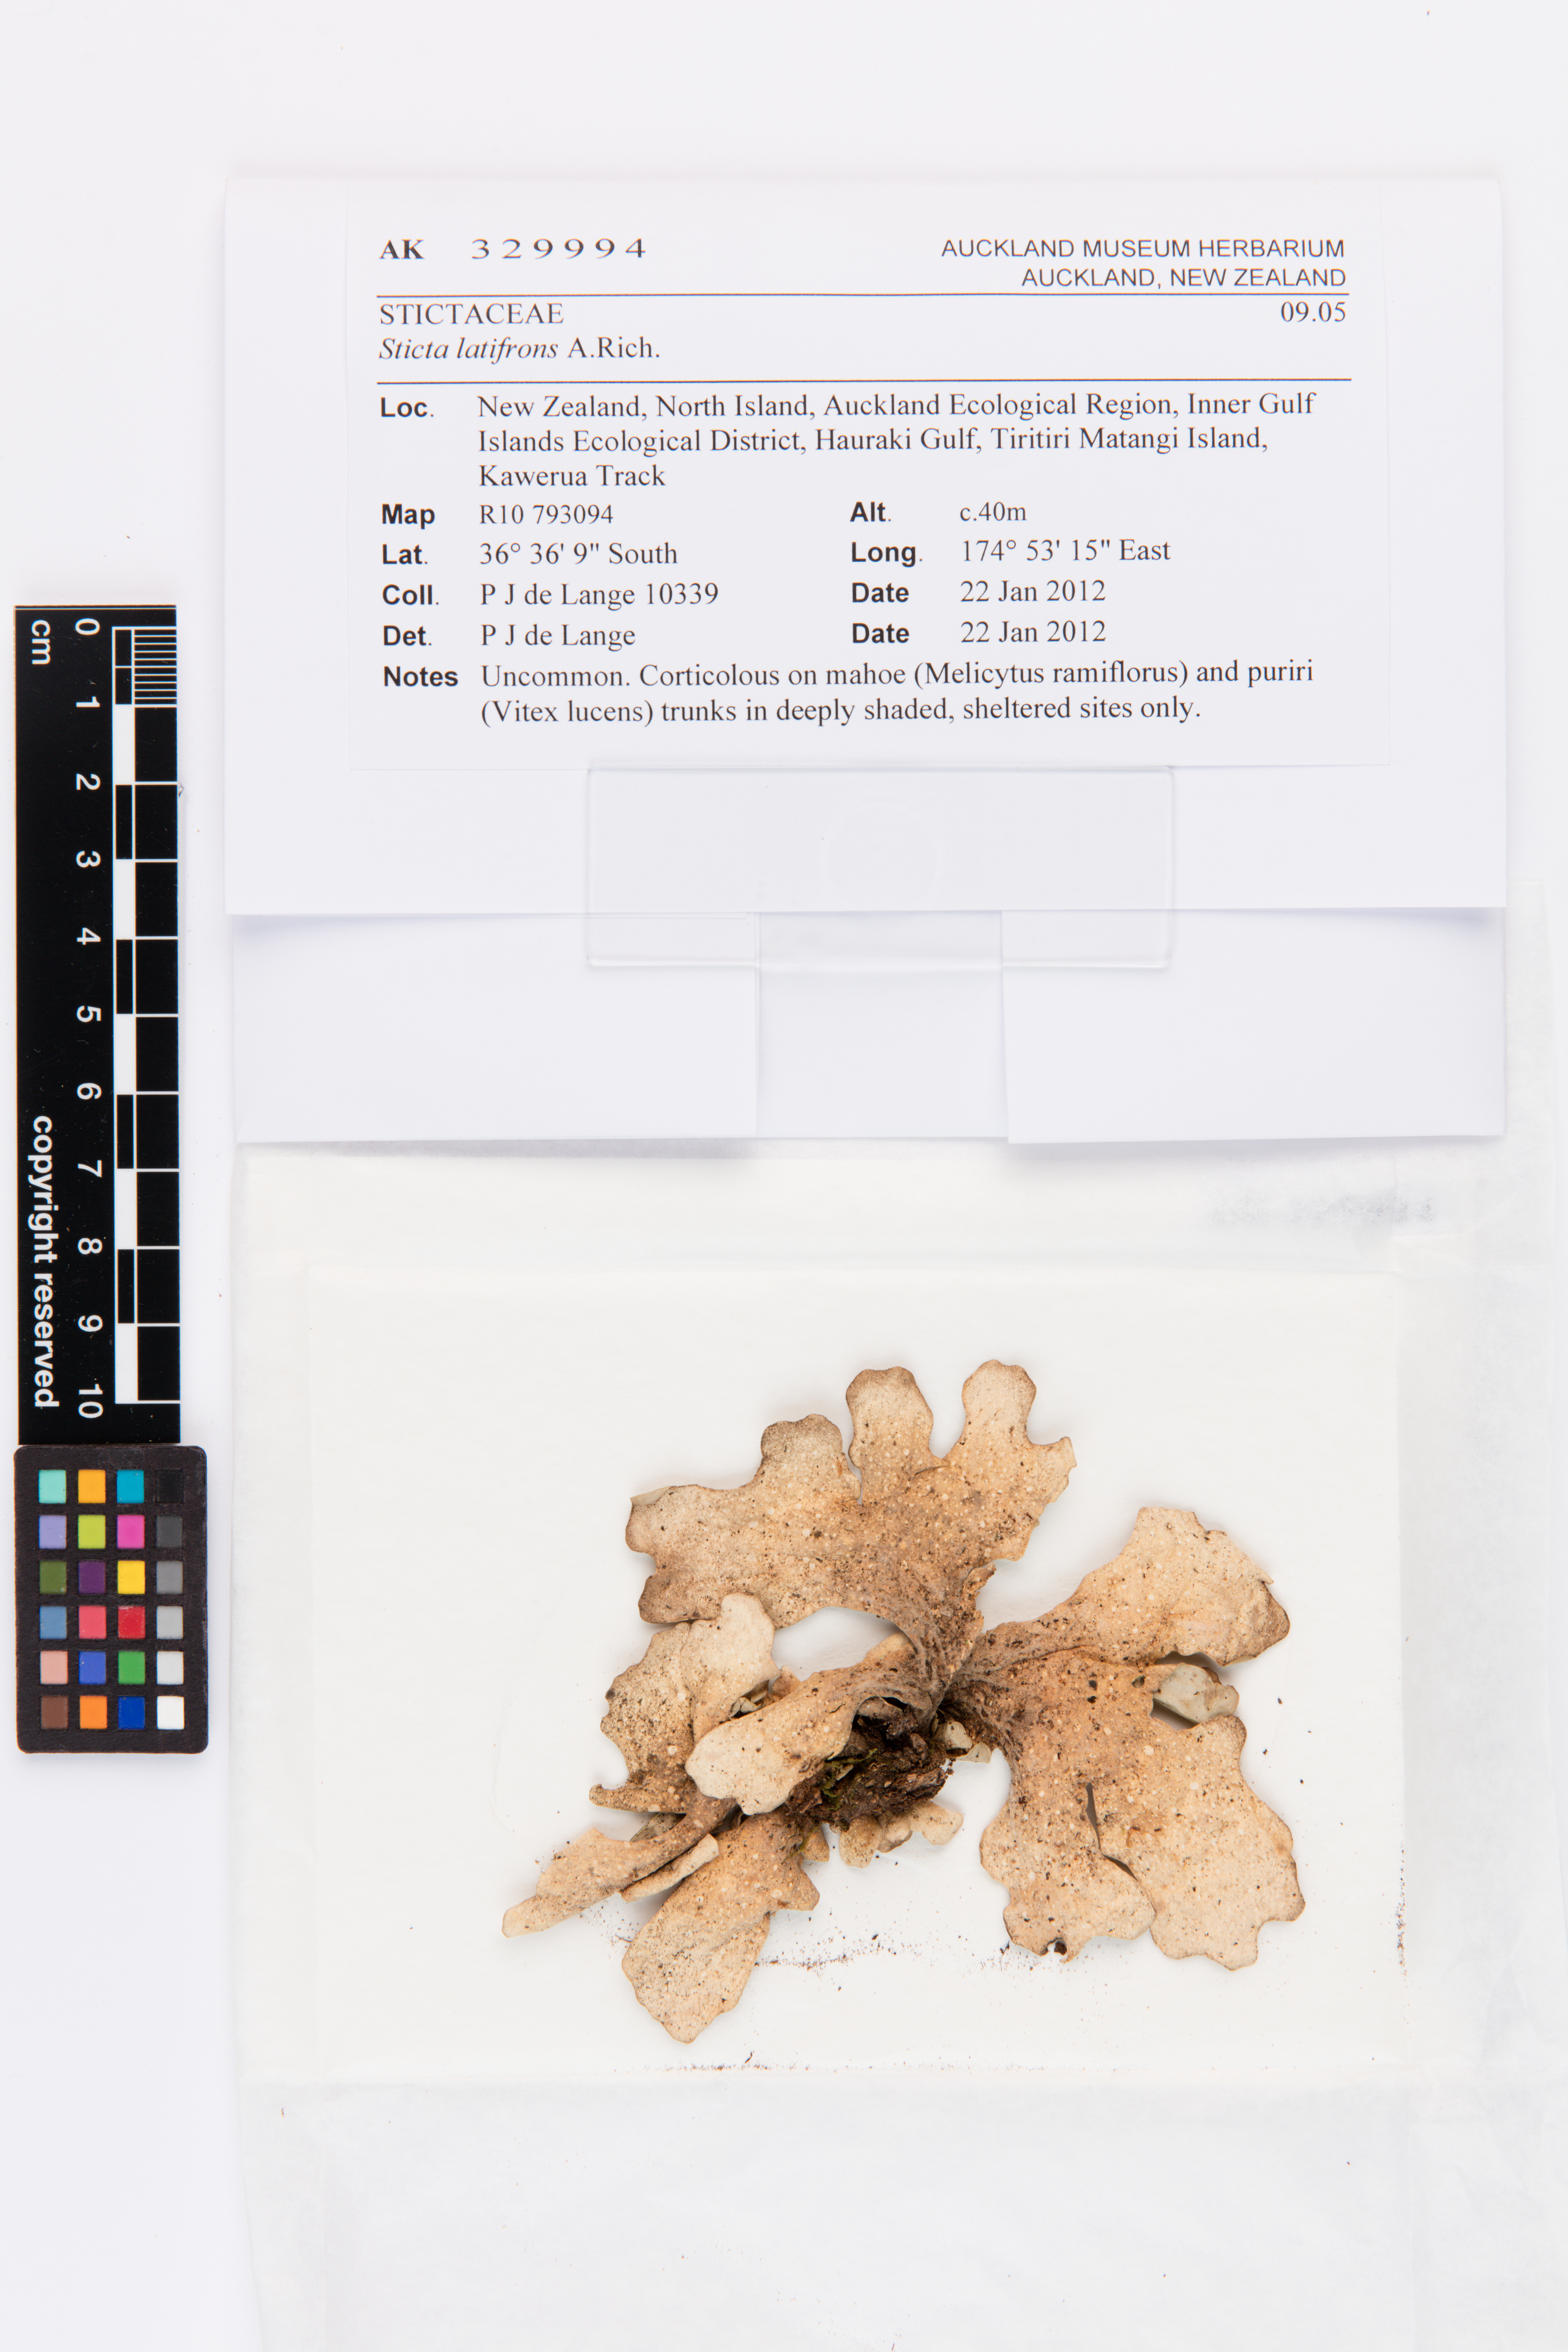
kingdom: Fungi
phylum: Ascomycota
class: Lecanoromycetes
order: Peltigerales
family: Lobariaceae
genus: Sticta
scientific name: Sticta latifrons
